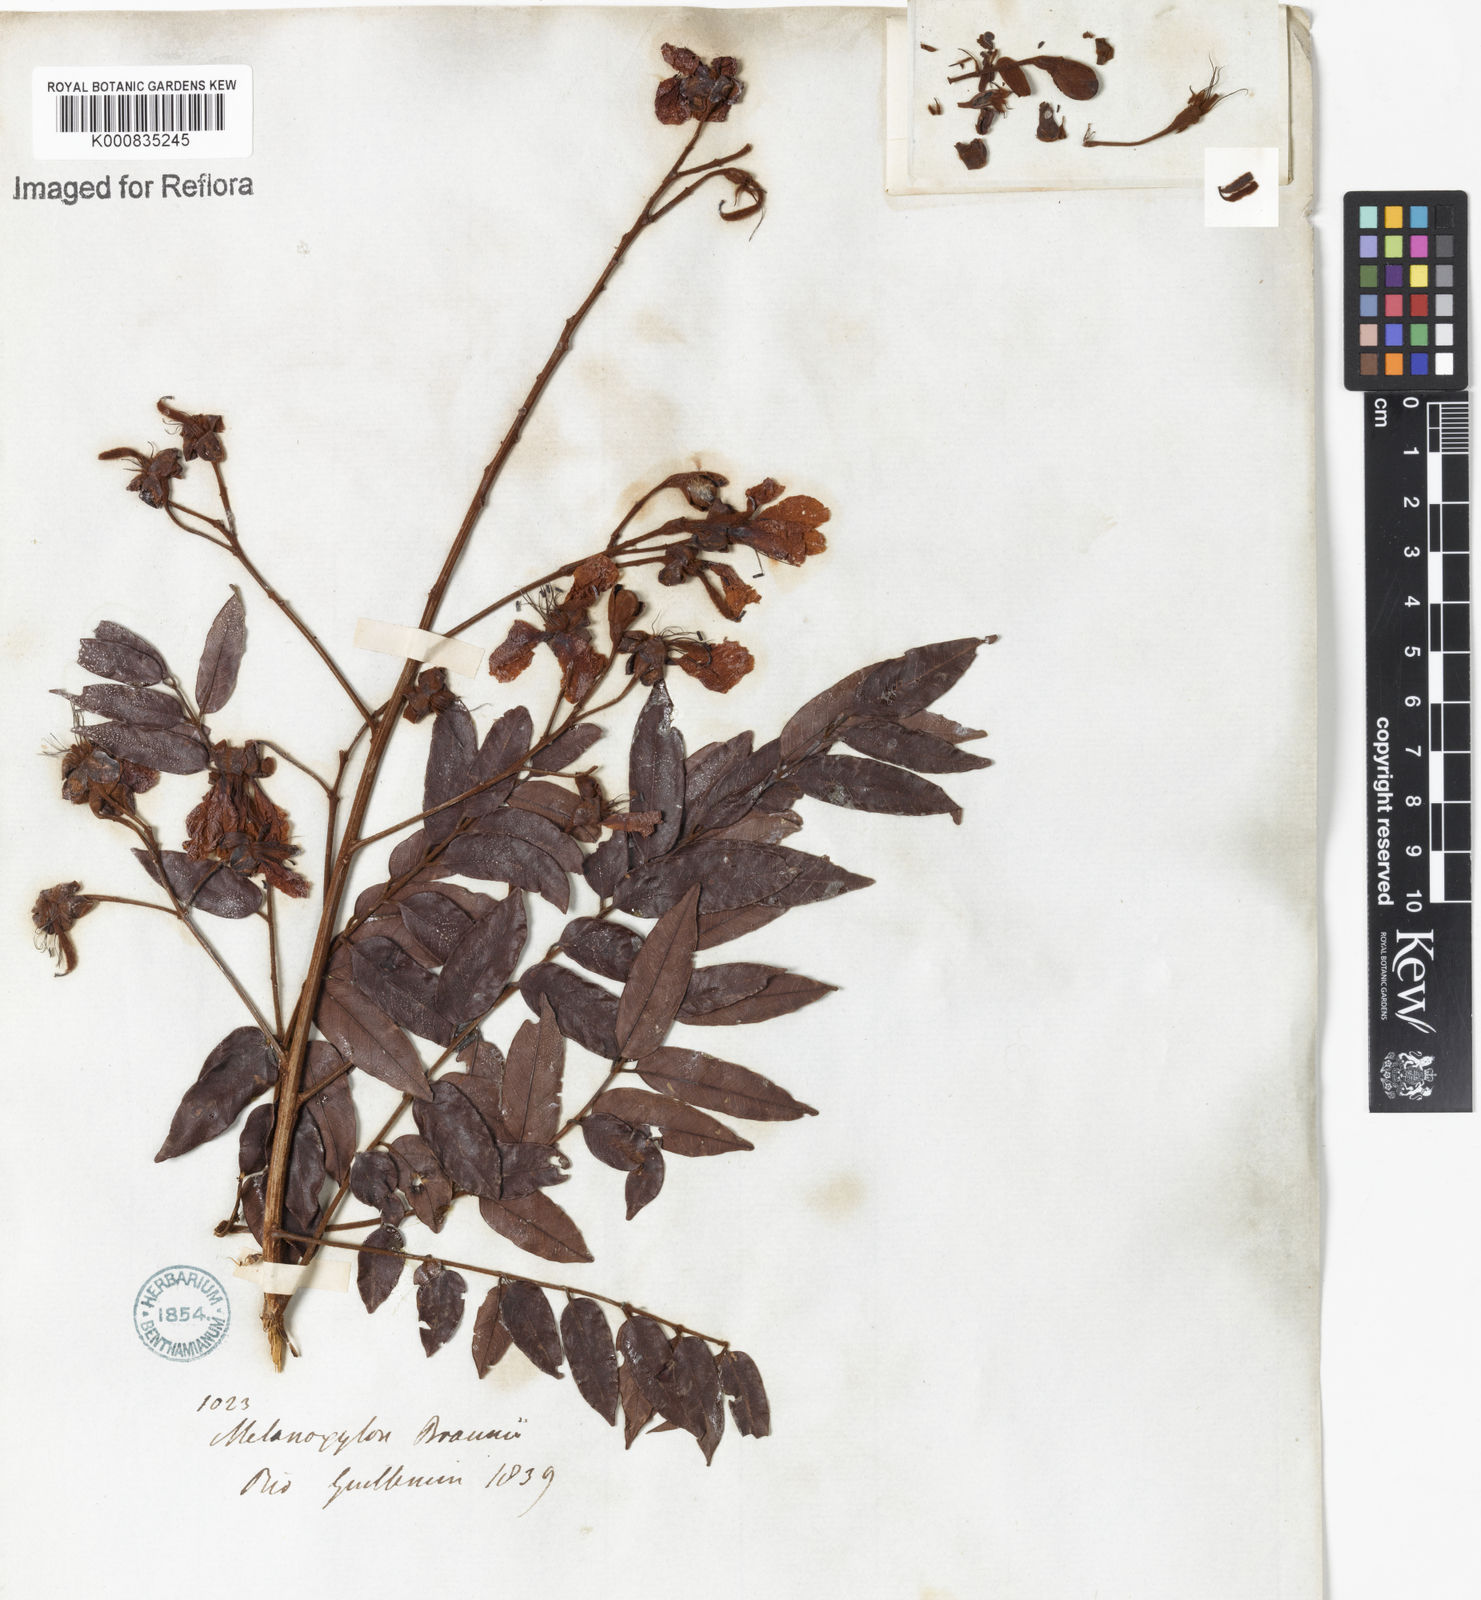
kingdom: Plantae
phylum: Tracheophyta
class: Magnoliopsida
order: Fabales
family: Fabaceae
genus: Melanoxylum
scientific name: Melanoxylum brauna
